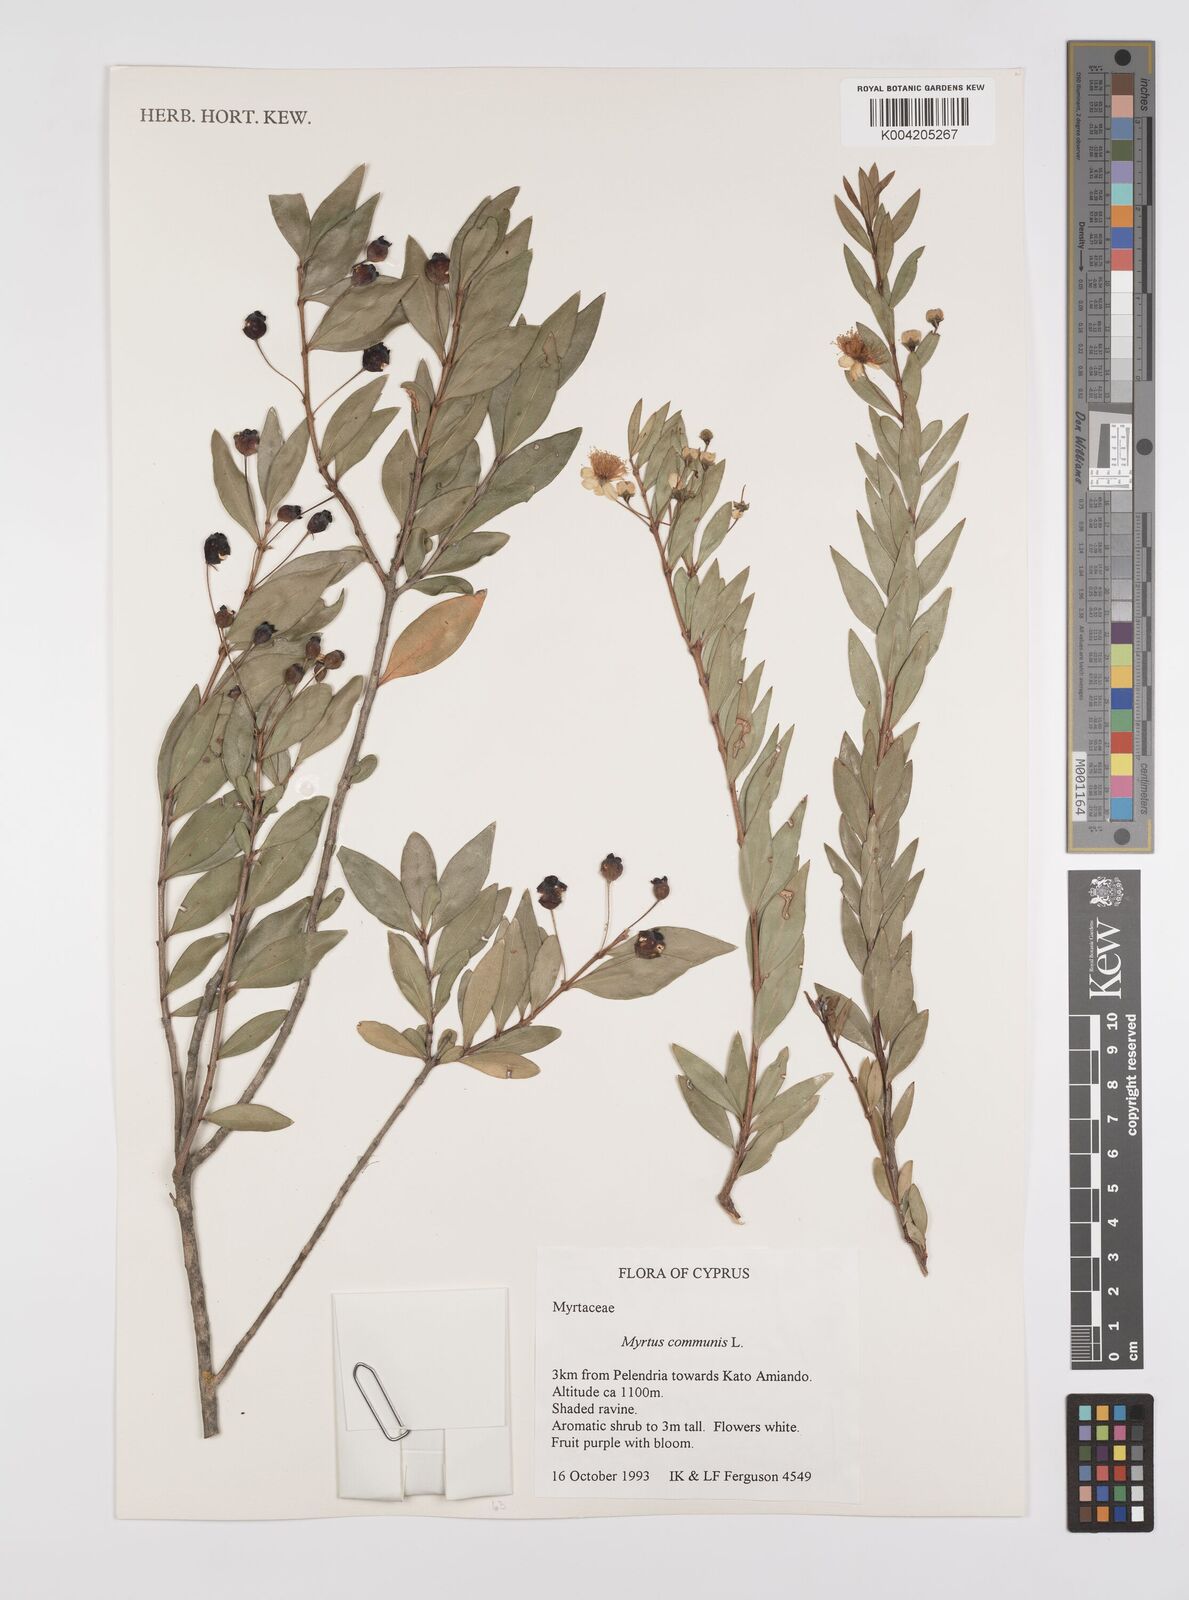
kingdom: Plantae
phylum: Tracheophyta
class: Magnoliopsida
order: Myrtales
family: Myrtaceae
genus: Myrtus
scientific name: Myrtus communis
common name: Myrtle
